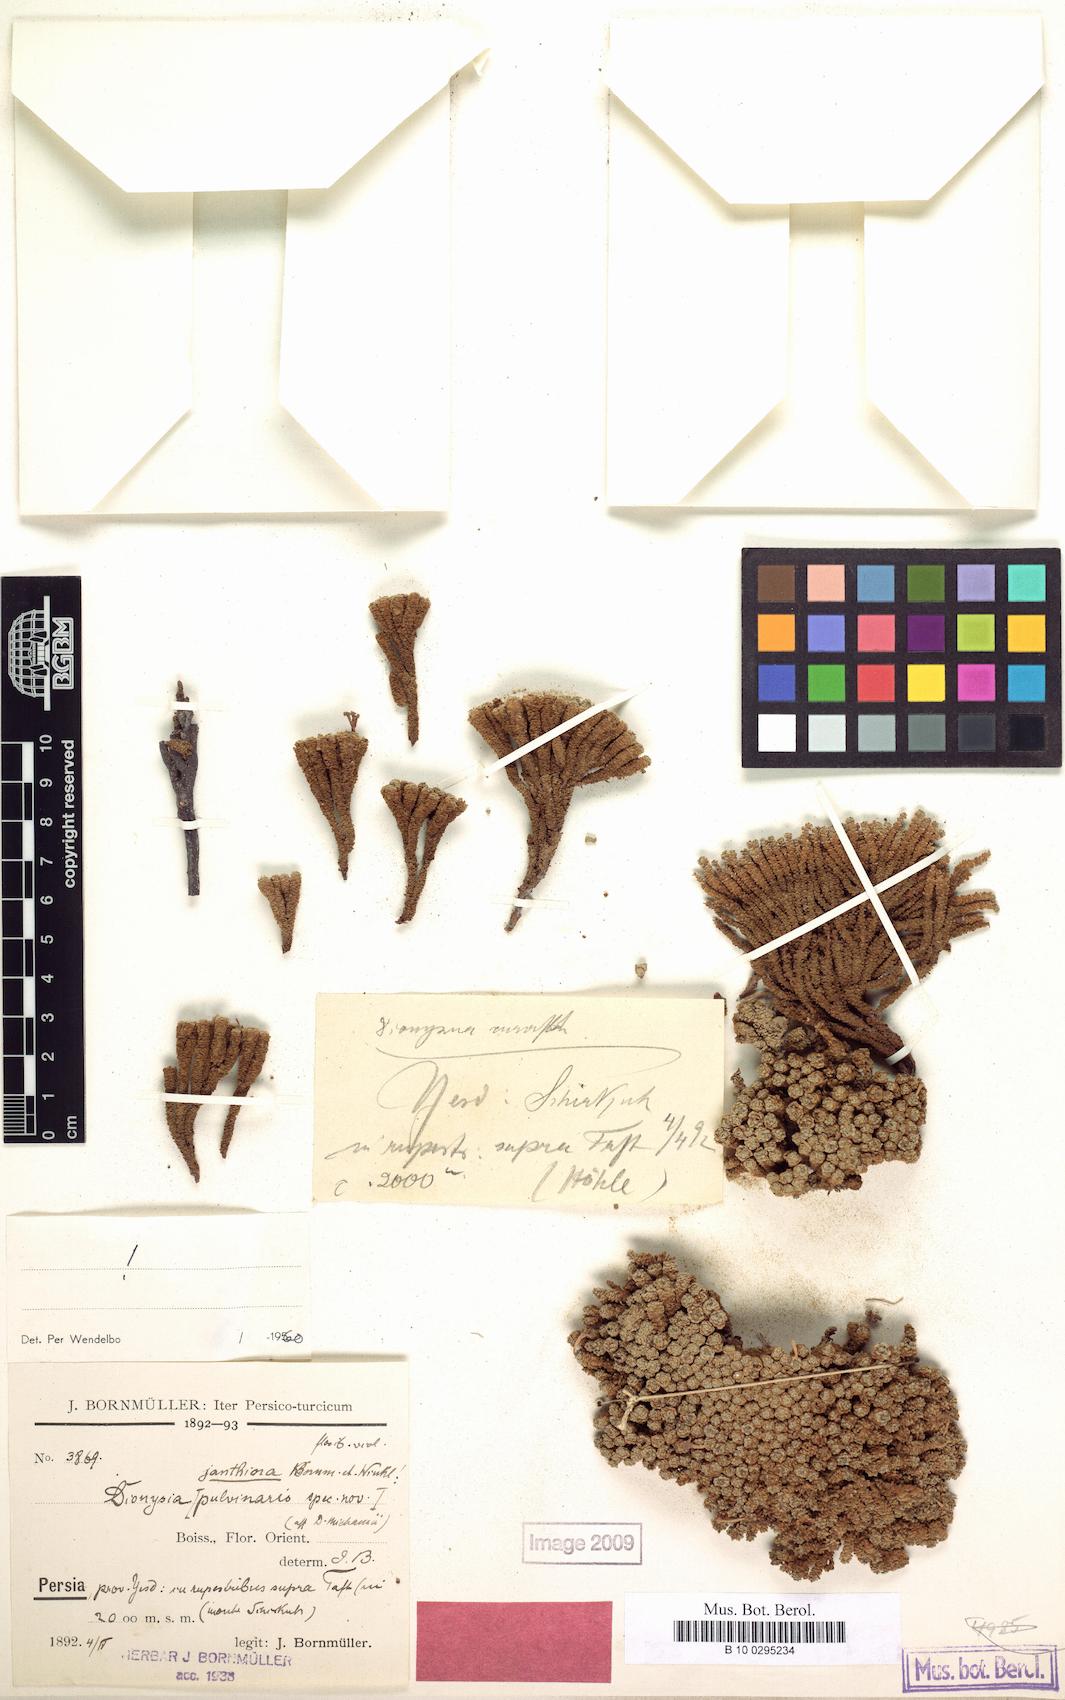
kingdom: Plantae
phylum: Tracheophyta
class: Magnoliopsida
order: Ericales
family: Primulaceae
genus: Dionysia
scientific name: Dionysia janthina
